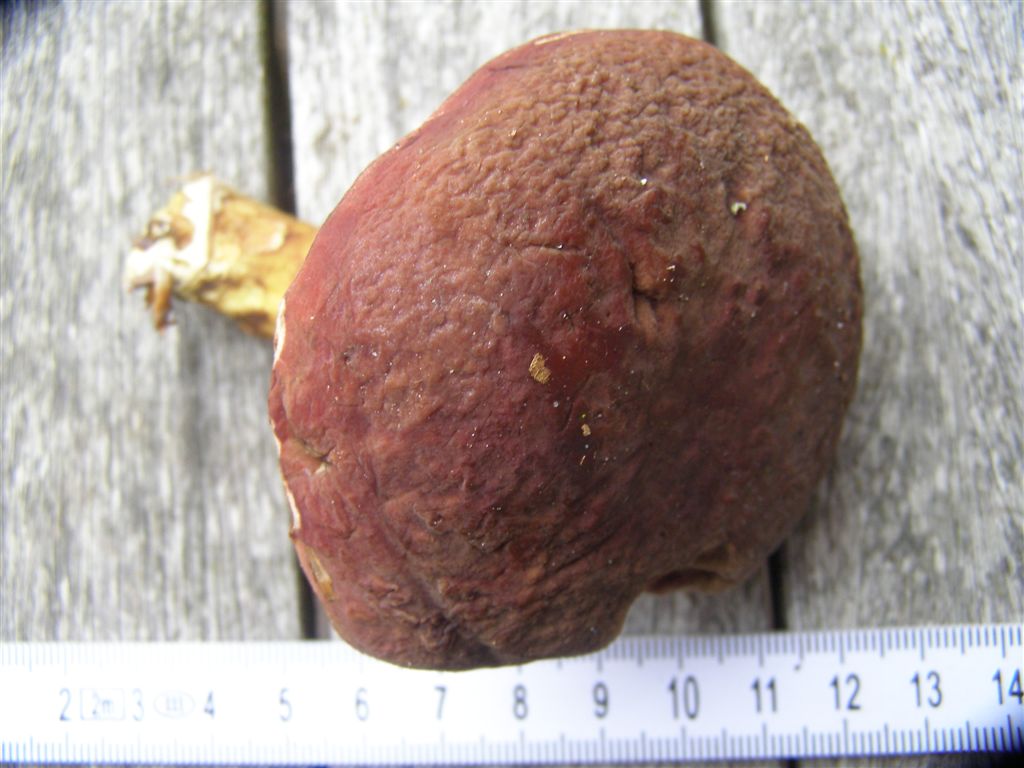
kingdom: Fungi
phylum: Basidiomycota
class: Agaricomycetes
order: Boletales
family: Boletaceae
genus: Xerocomellus
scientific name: Xerocomellus pruinatus
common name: dugget rørhat
